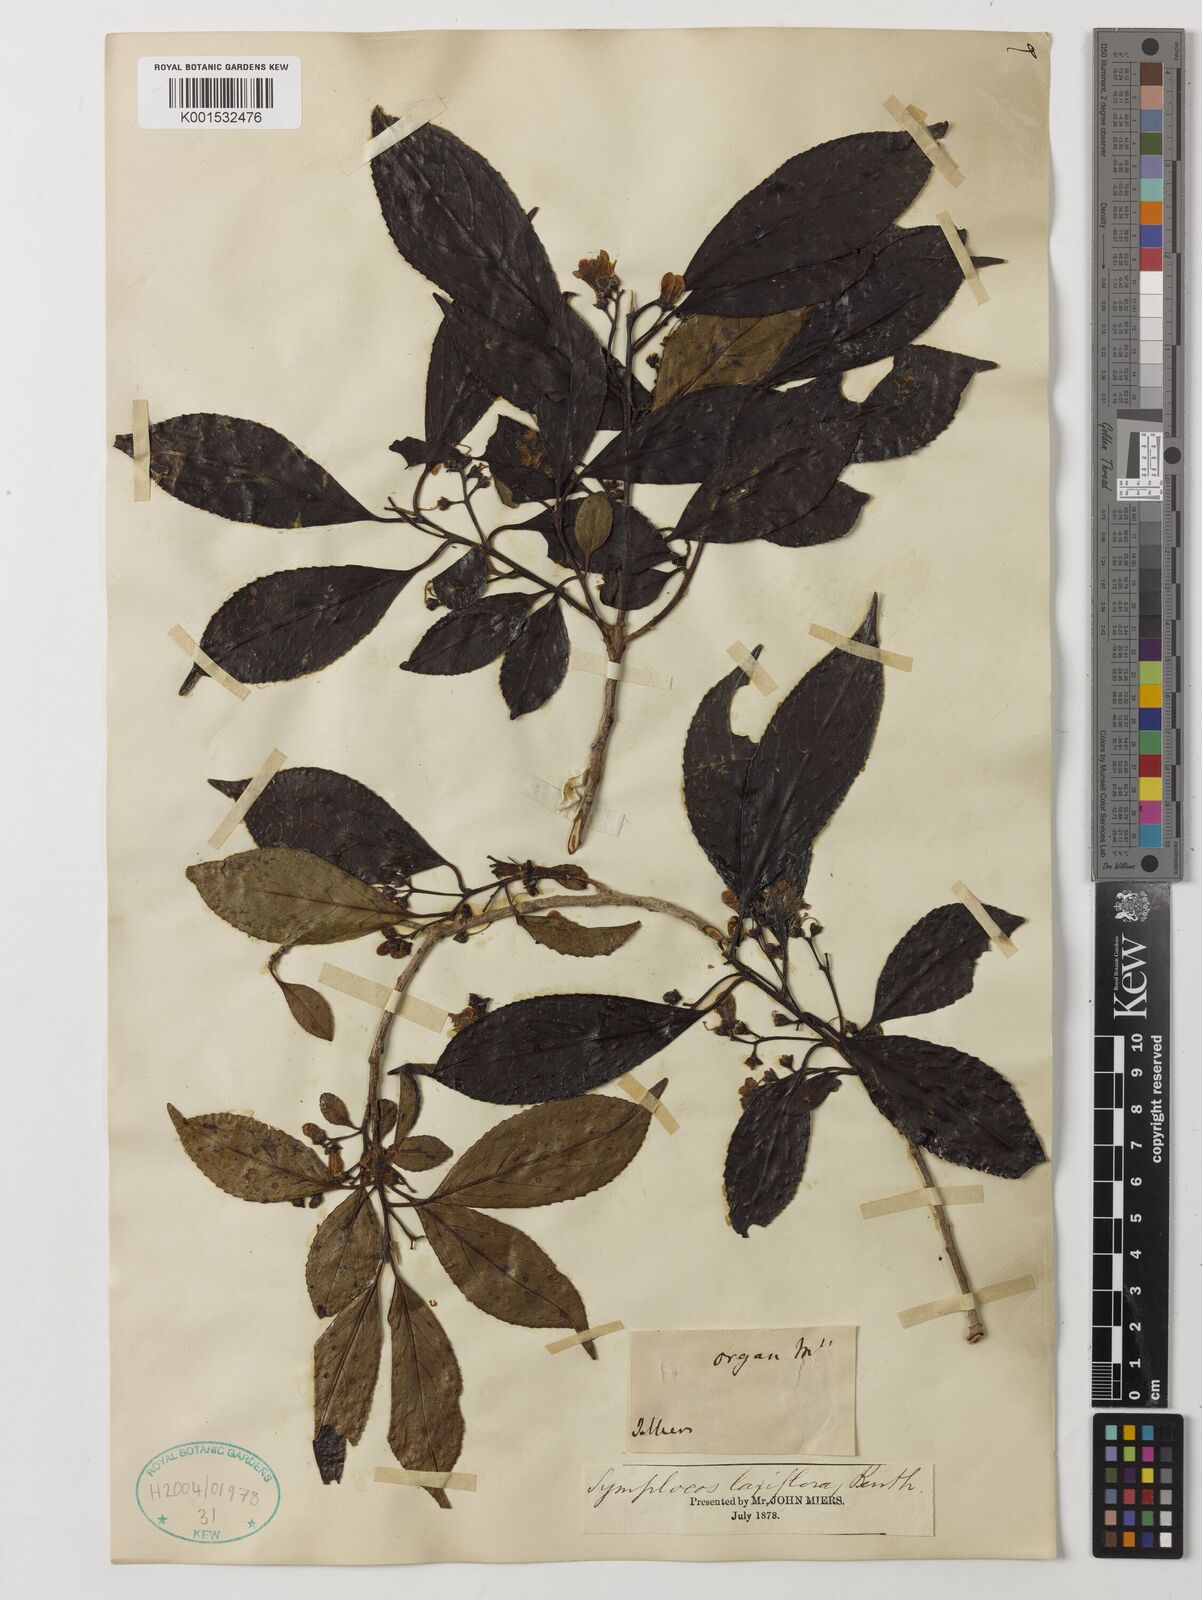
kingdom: Plantae
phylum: Tracheophyta
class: Magnoliopsida
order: Ericales
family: Symplocaceae
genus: Symplocos
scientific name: Symplocos laxiflora
